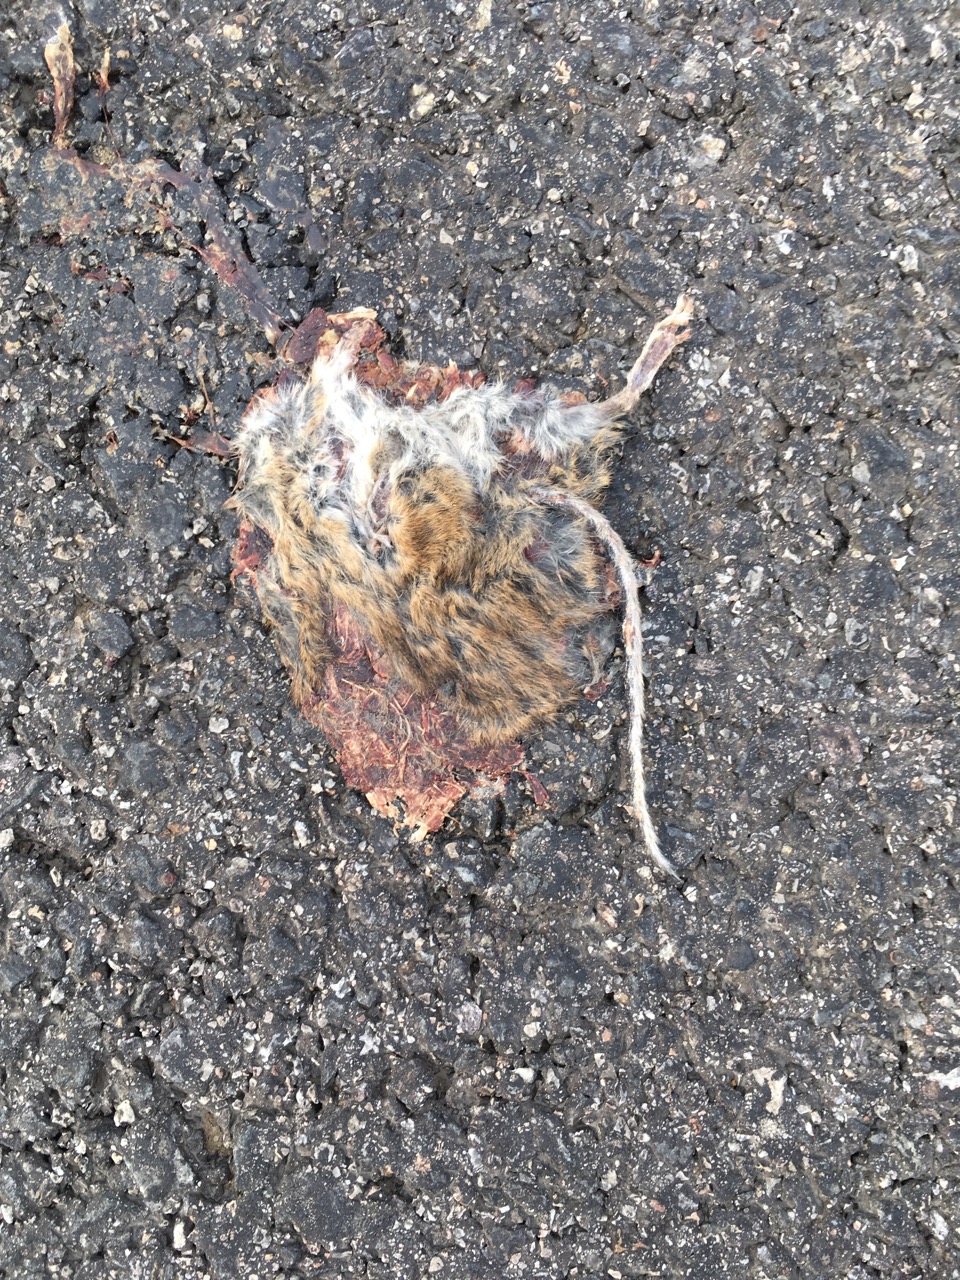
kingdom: Animalia
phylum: Chordata
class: Mammalia
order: Rodentia
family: Muridae
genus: Apodemus
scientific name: Apodemus
